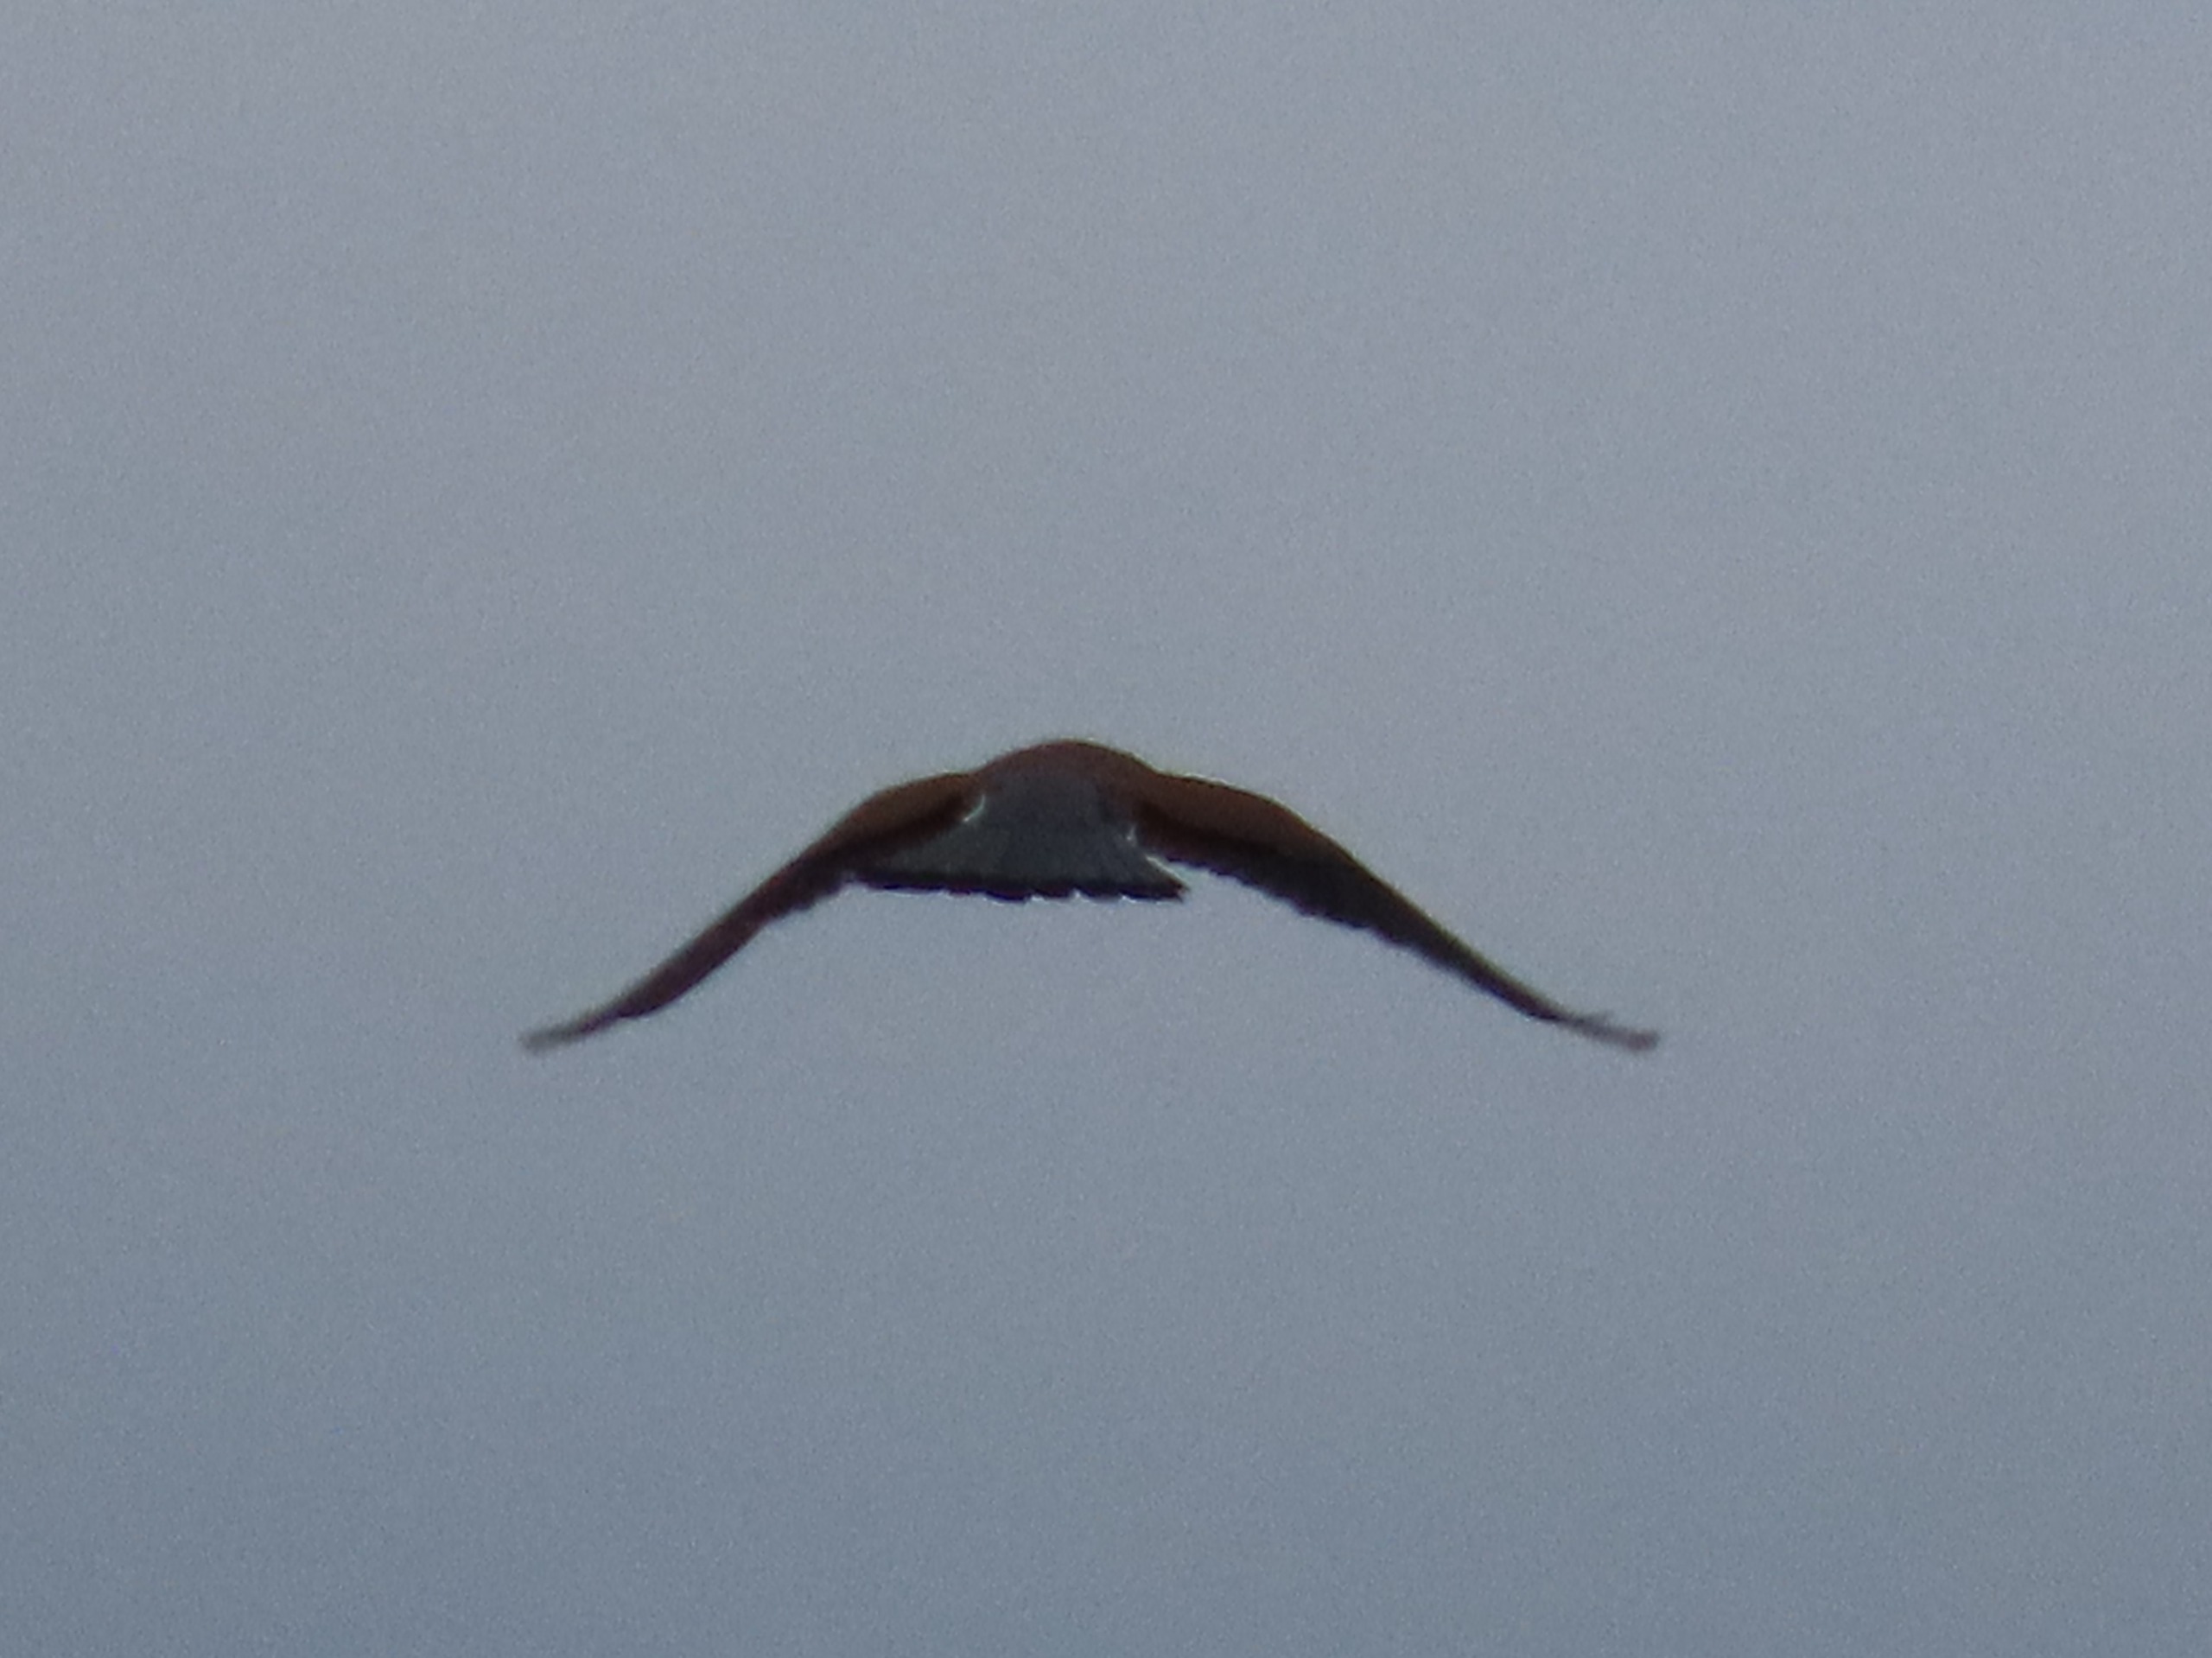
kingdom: Animalia
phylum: Chordata
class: Aves
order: Falconiformes
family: Falconidae
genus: Falco
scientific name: Falco tinnunculus
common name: Tårnfalk
